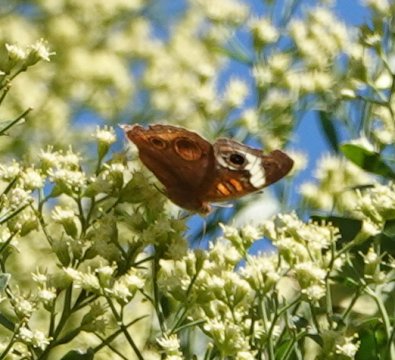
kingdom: Animalia
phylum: Arthropoda
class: Insecta
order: Lepidoptera
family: Nymphalidae
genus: Junonia
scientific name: Junonia coenia
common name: Common Buckeye
